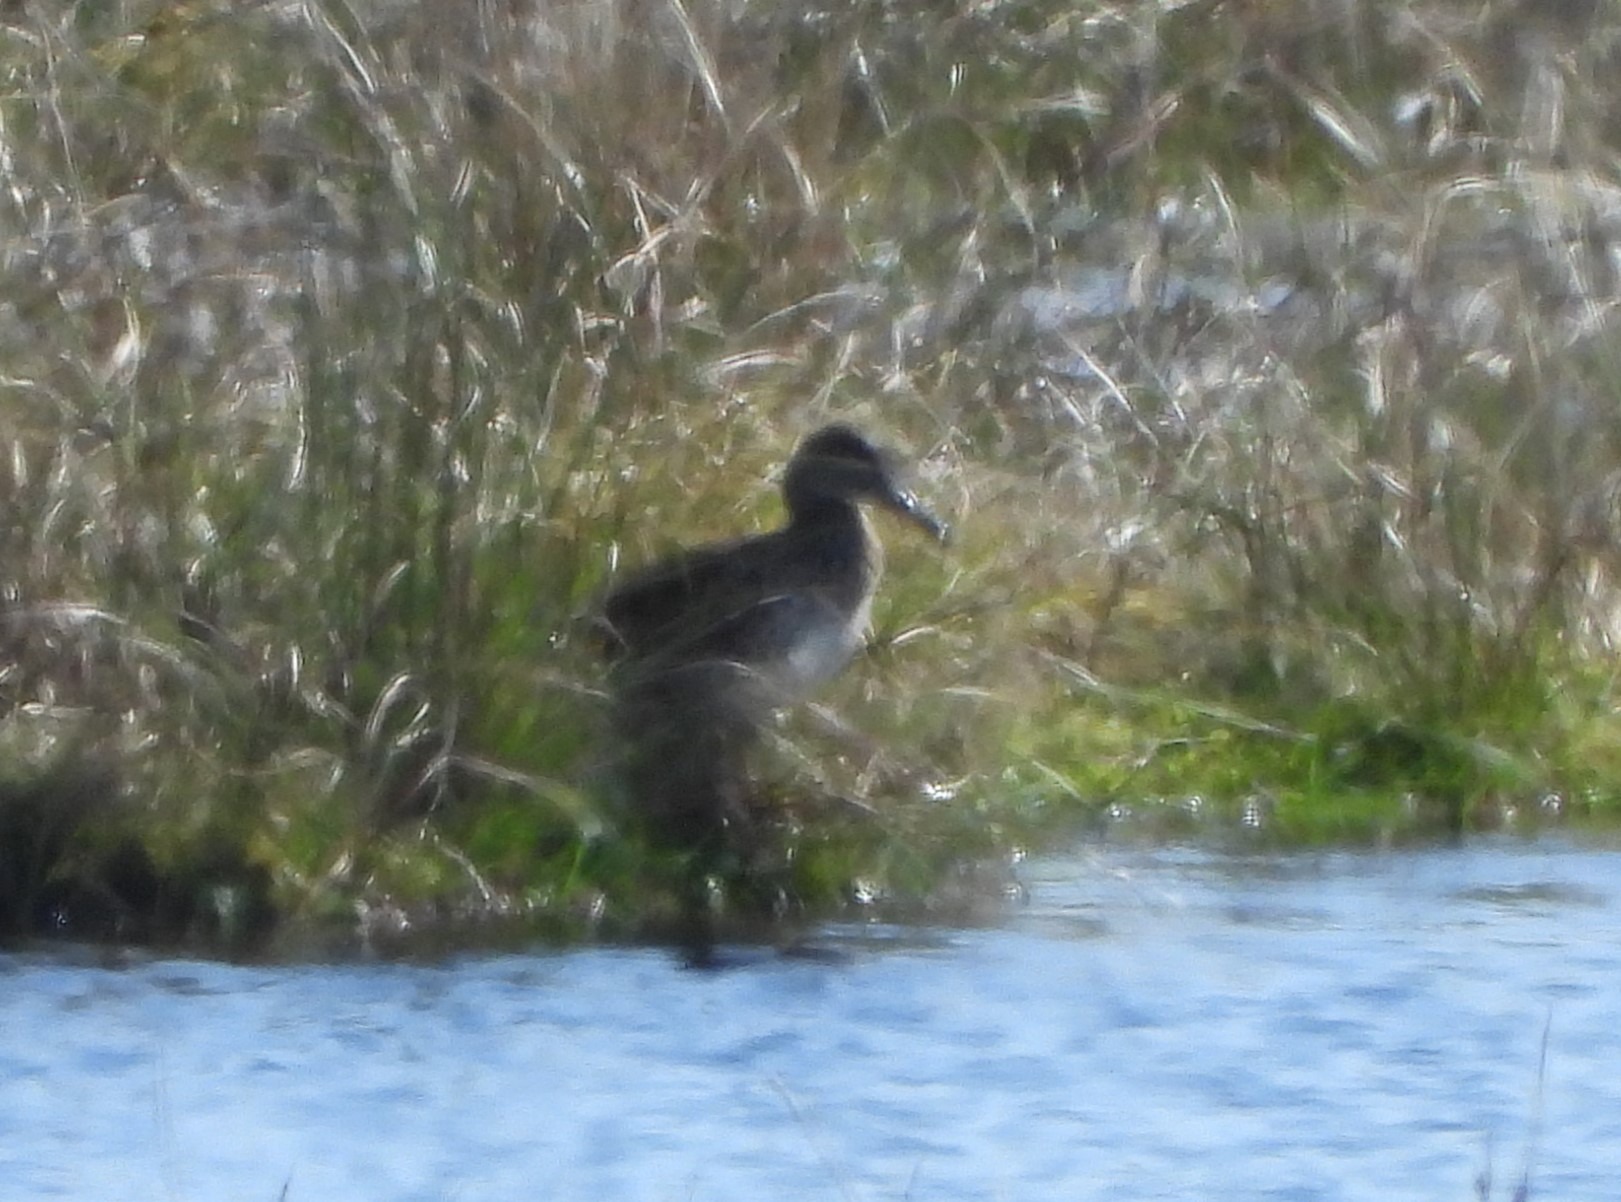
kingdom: Animalia
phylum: Chordata
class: Aves
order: Anseriformes
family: Anatidae
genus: Anas
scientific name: Anas crecca
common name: Krikand
